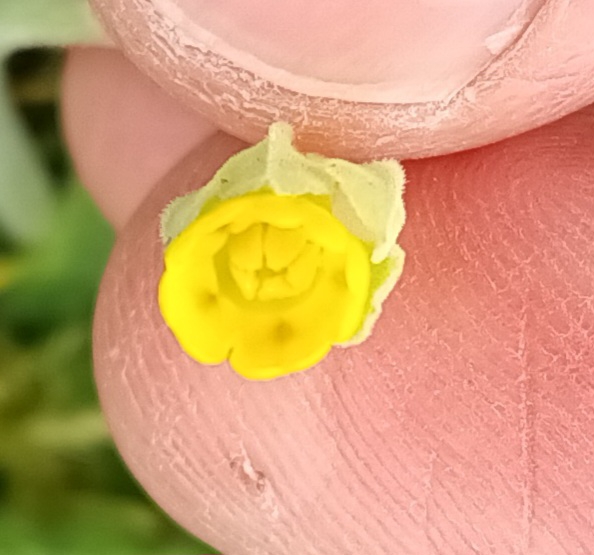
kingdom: Plantae
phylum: Tracheophyta
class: Magnoliopsida
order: Ericales
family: Primulaceae
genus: Primula
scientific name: Primula veris
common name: Hulkravet kodriver
